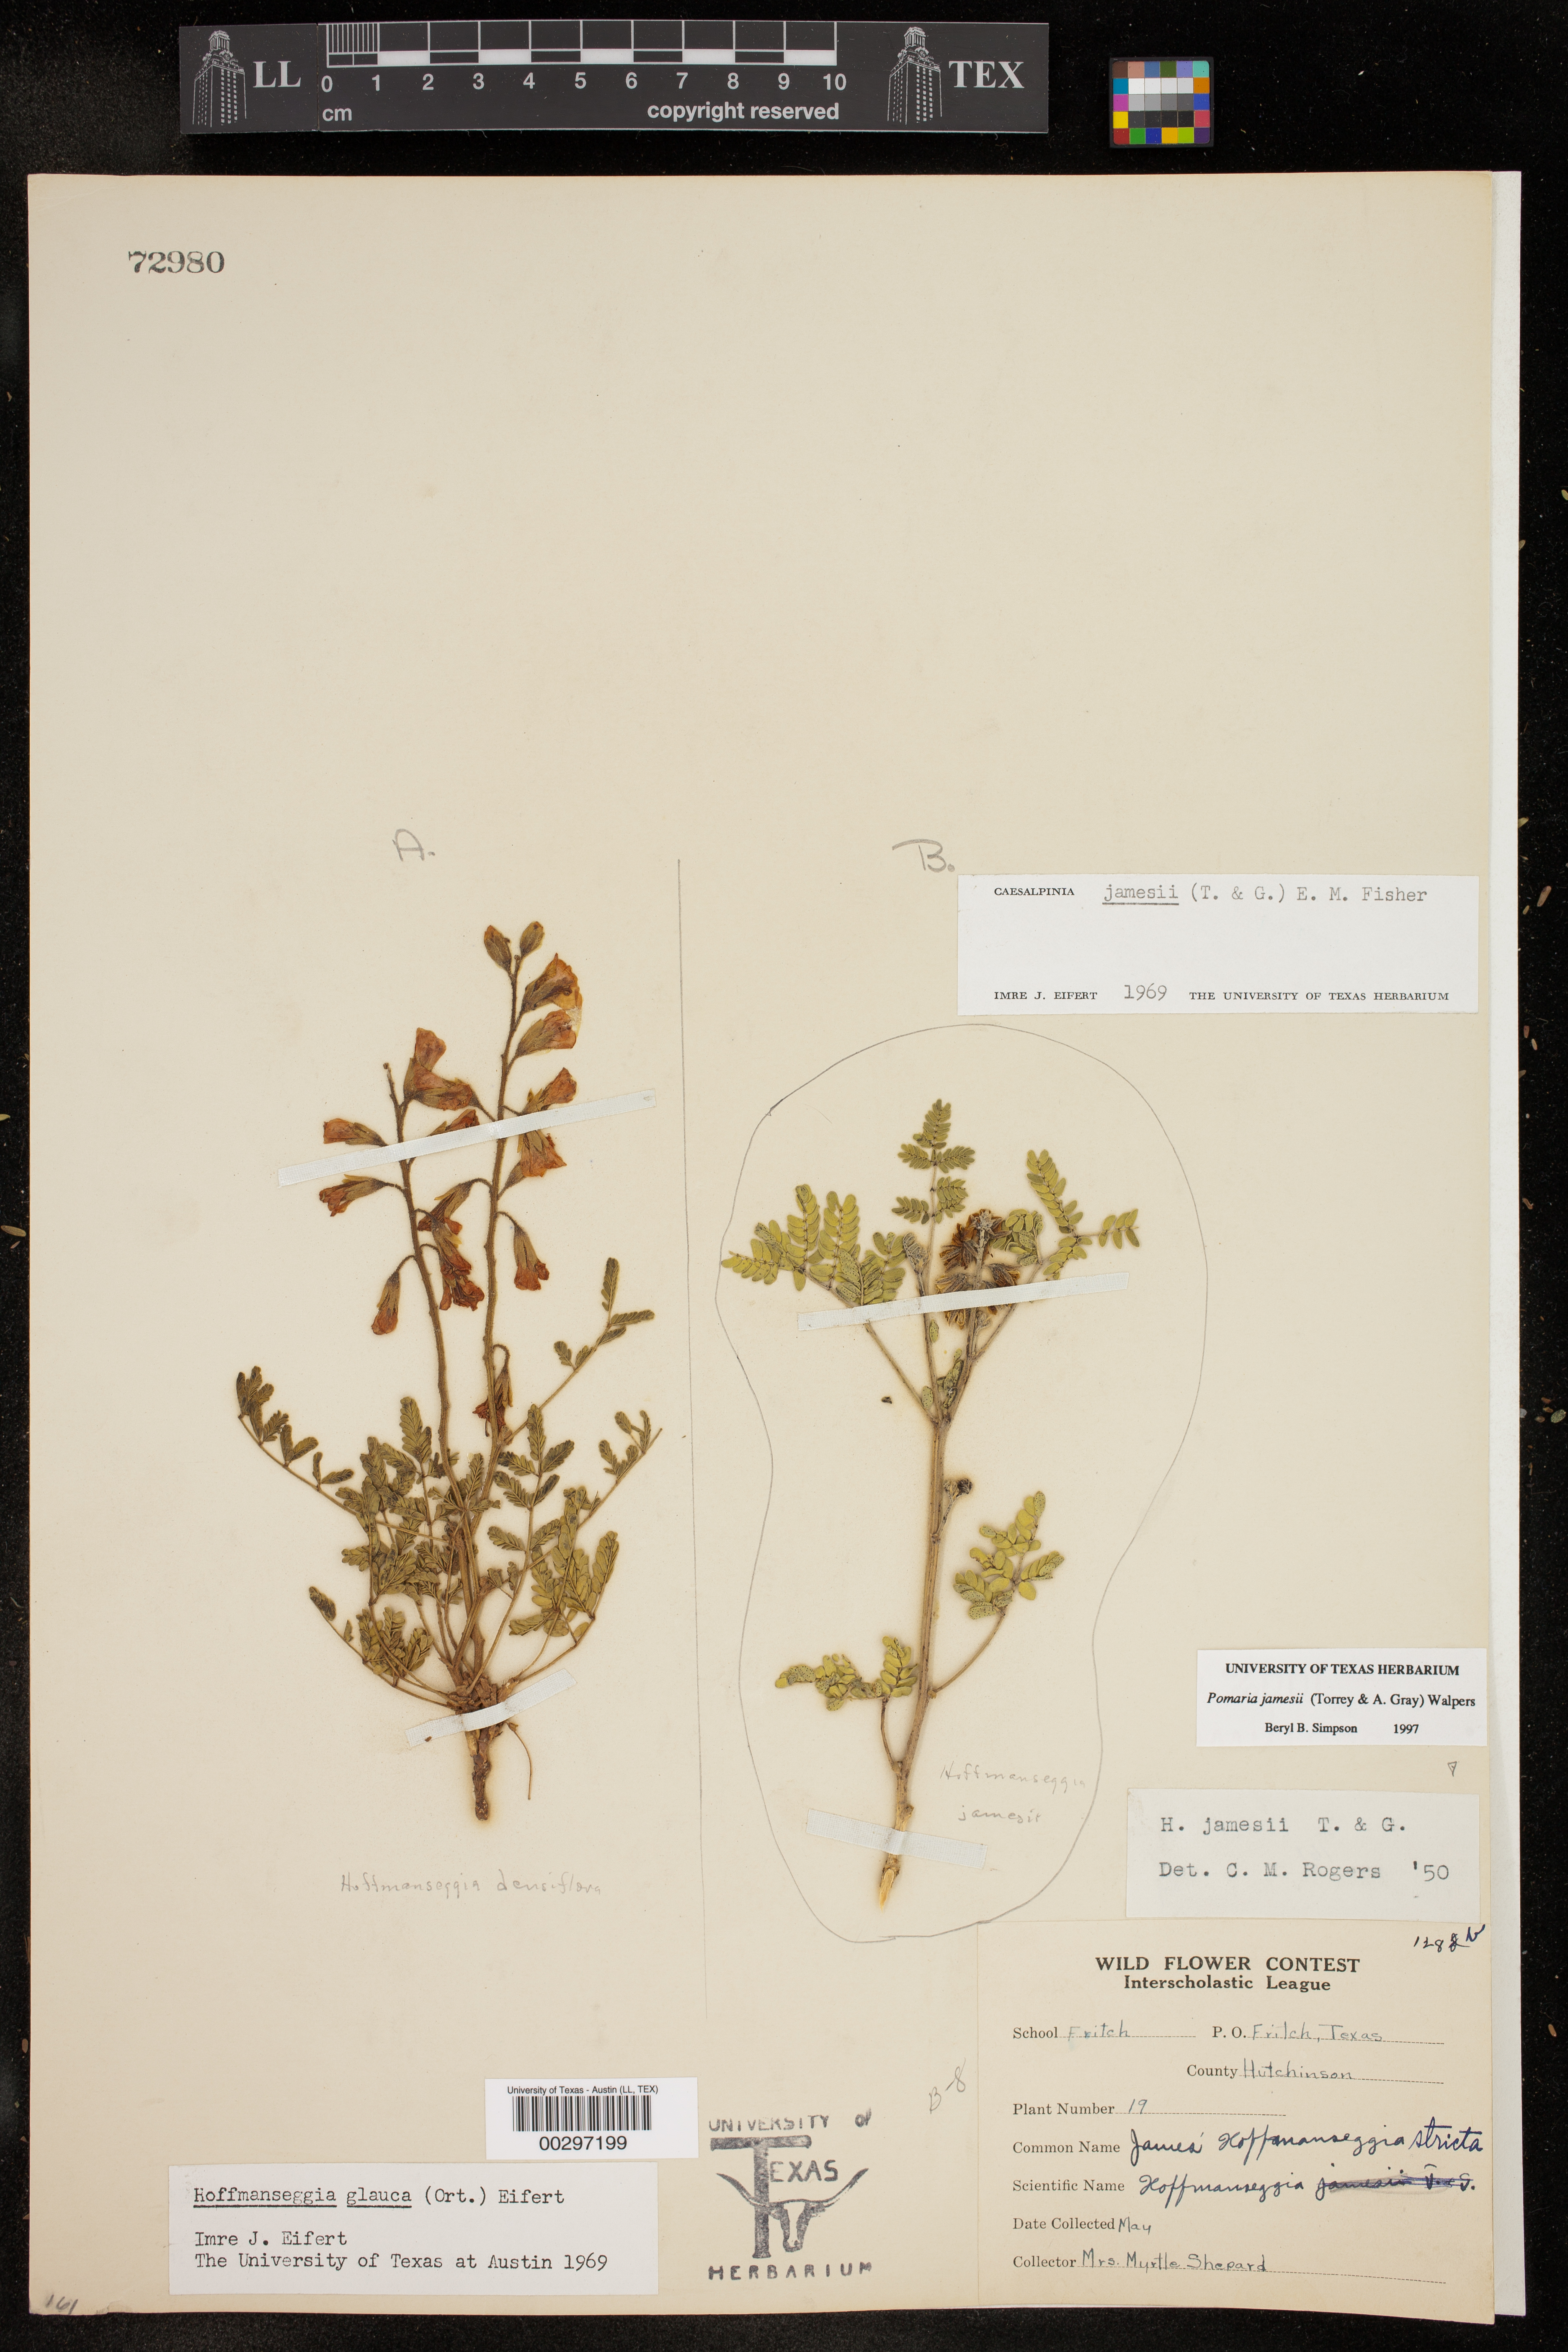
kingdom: Plantae
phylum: Tracheophyta
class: Magnoliopsida
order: Fabales
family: Fabaceae
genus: Pomaria
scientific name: Pomaria jamesii
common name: James' caesalpinia
